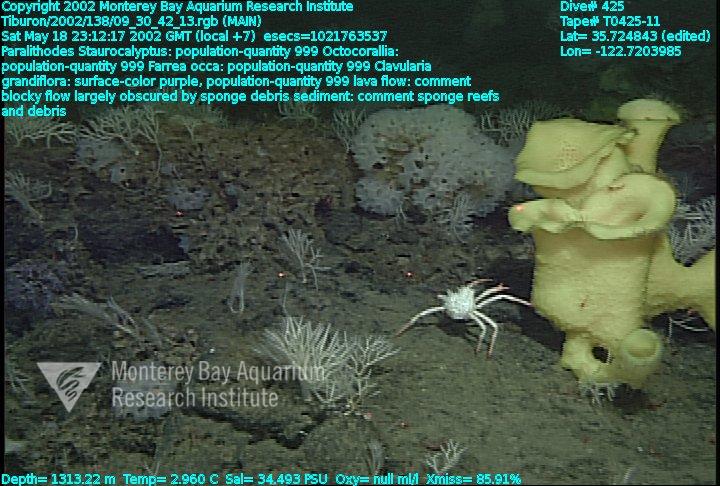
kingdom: Animalia
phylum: Porifera
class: Hexactinellida
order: Sceptrulophora
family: Farreidae
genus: Farrea
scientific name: Farrea occa
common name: Reversed glass sponge
